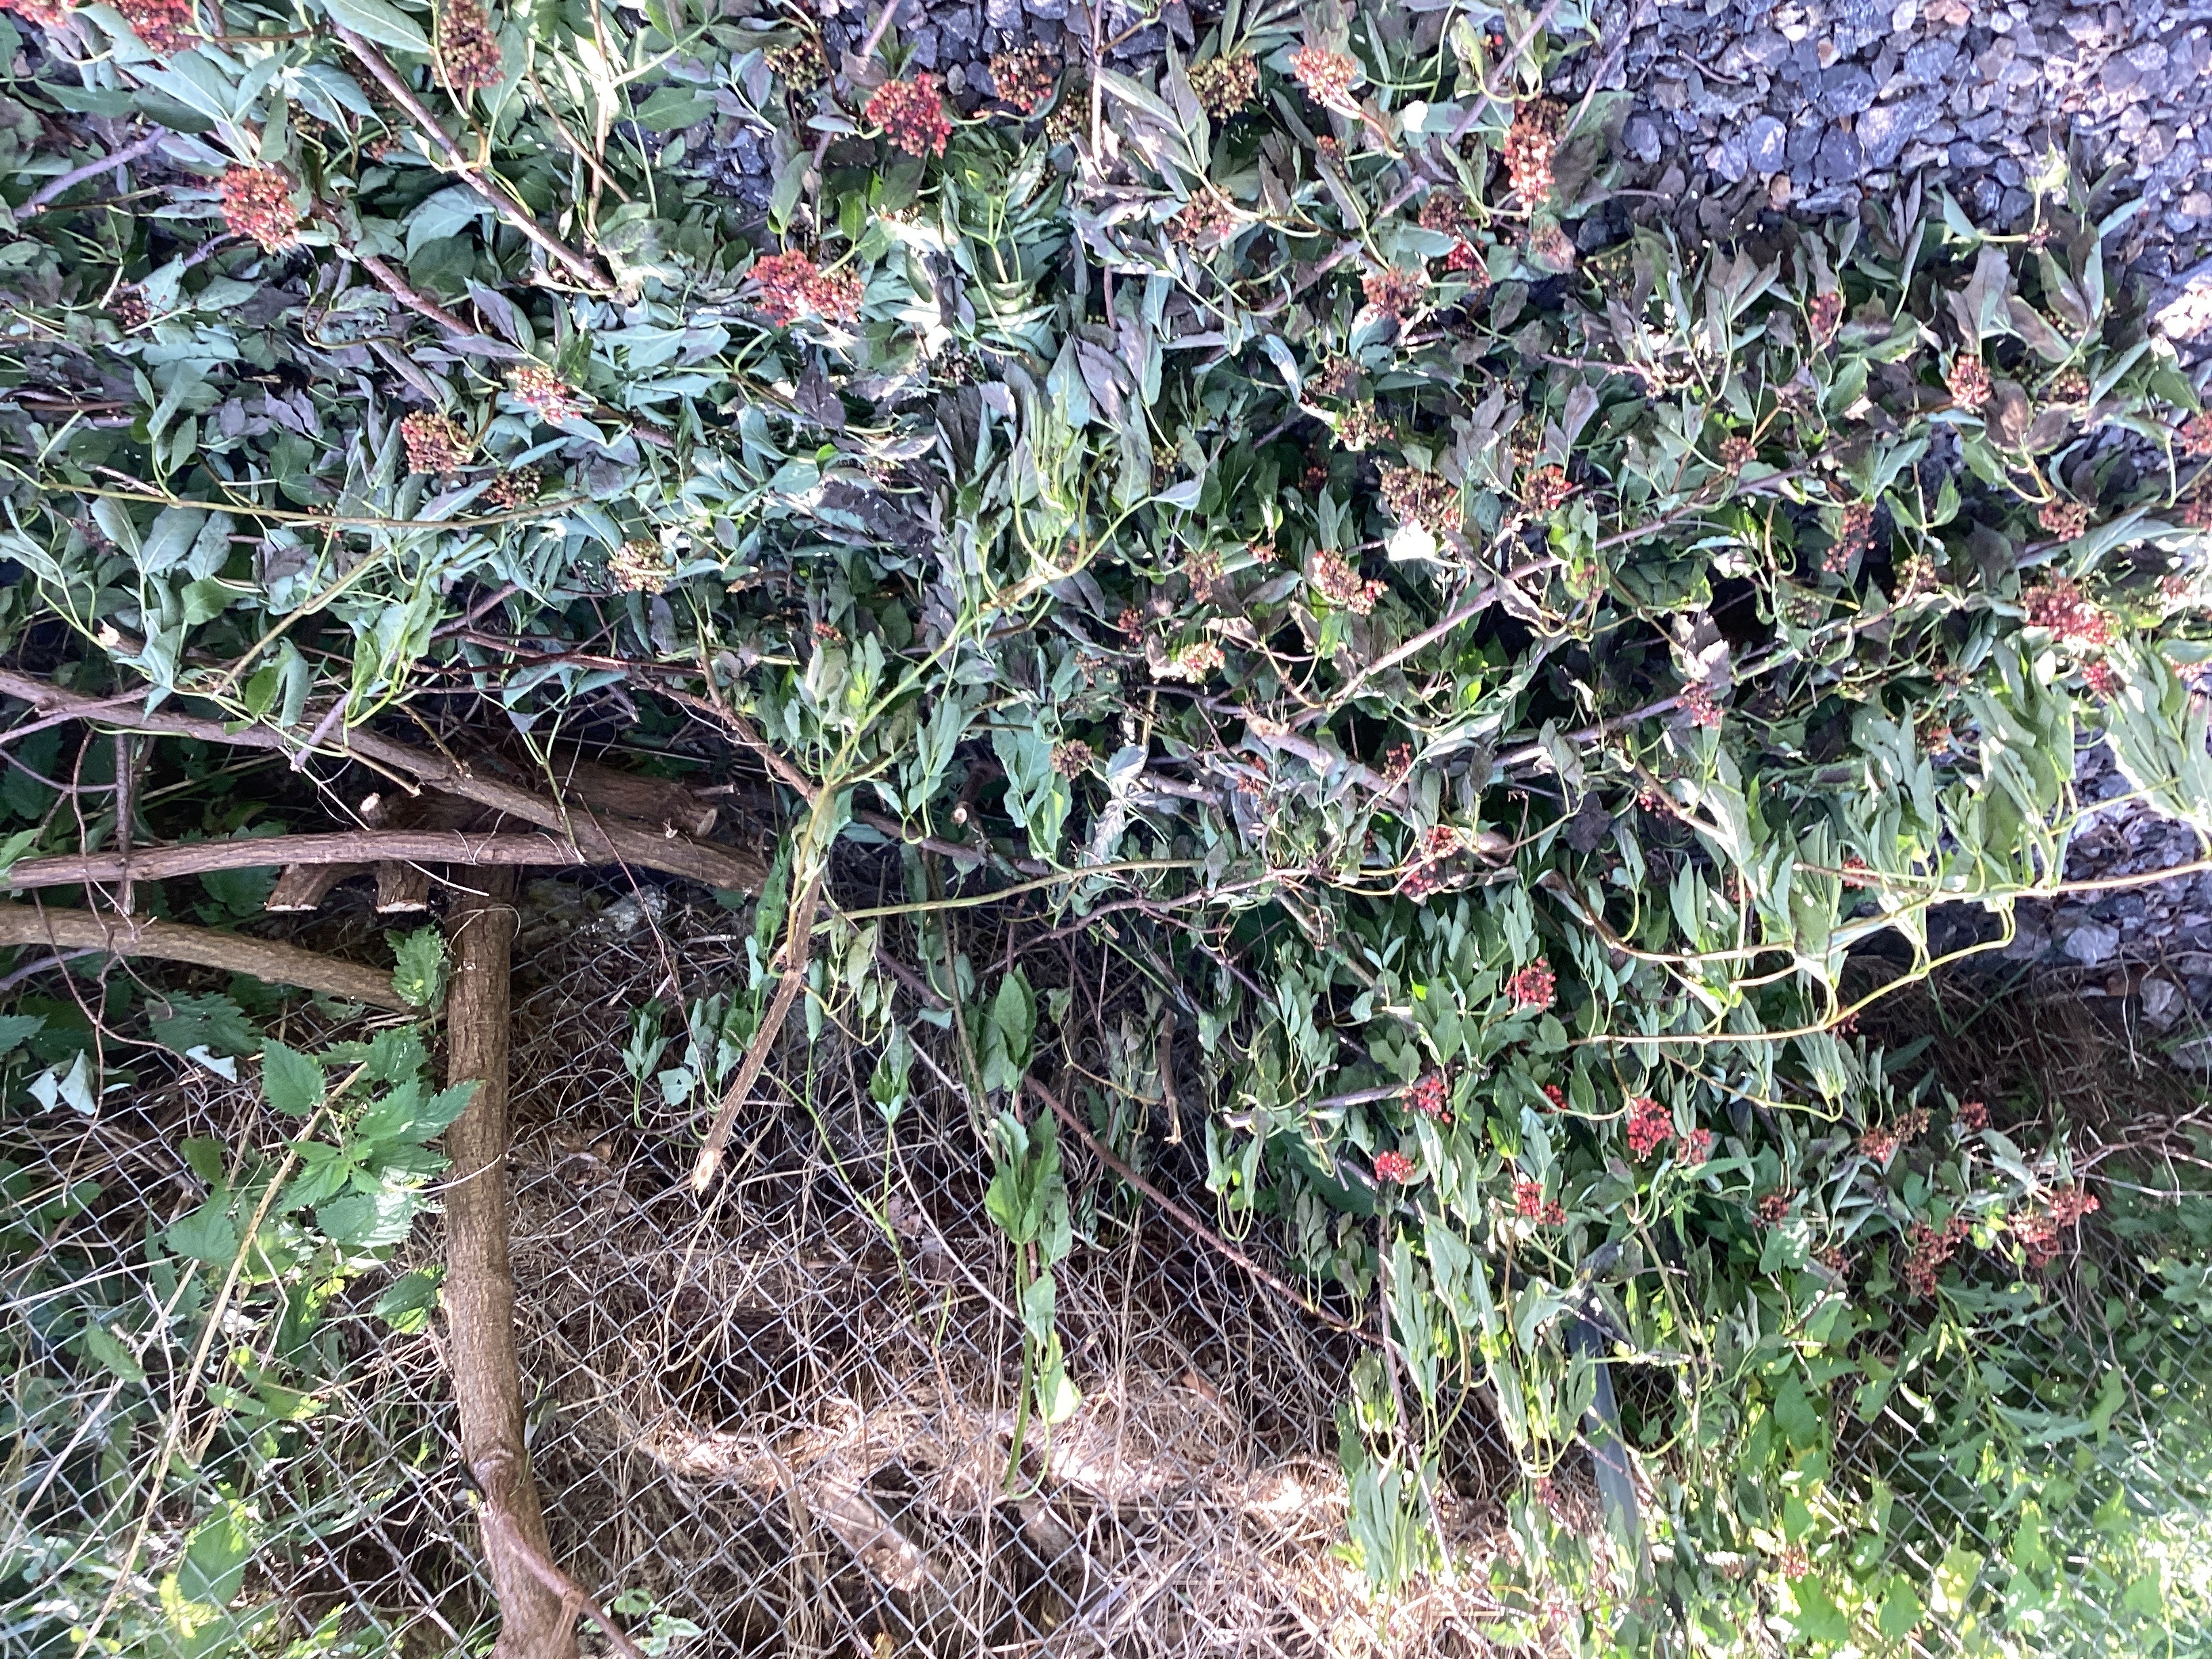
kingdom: Plantae
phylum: Tracheophyta
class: Magnoliopsida
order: Dipsacales
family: Viburnaceae
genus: Sambucus
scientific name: Sambucus racemosa
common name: rødhyll
